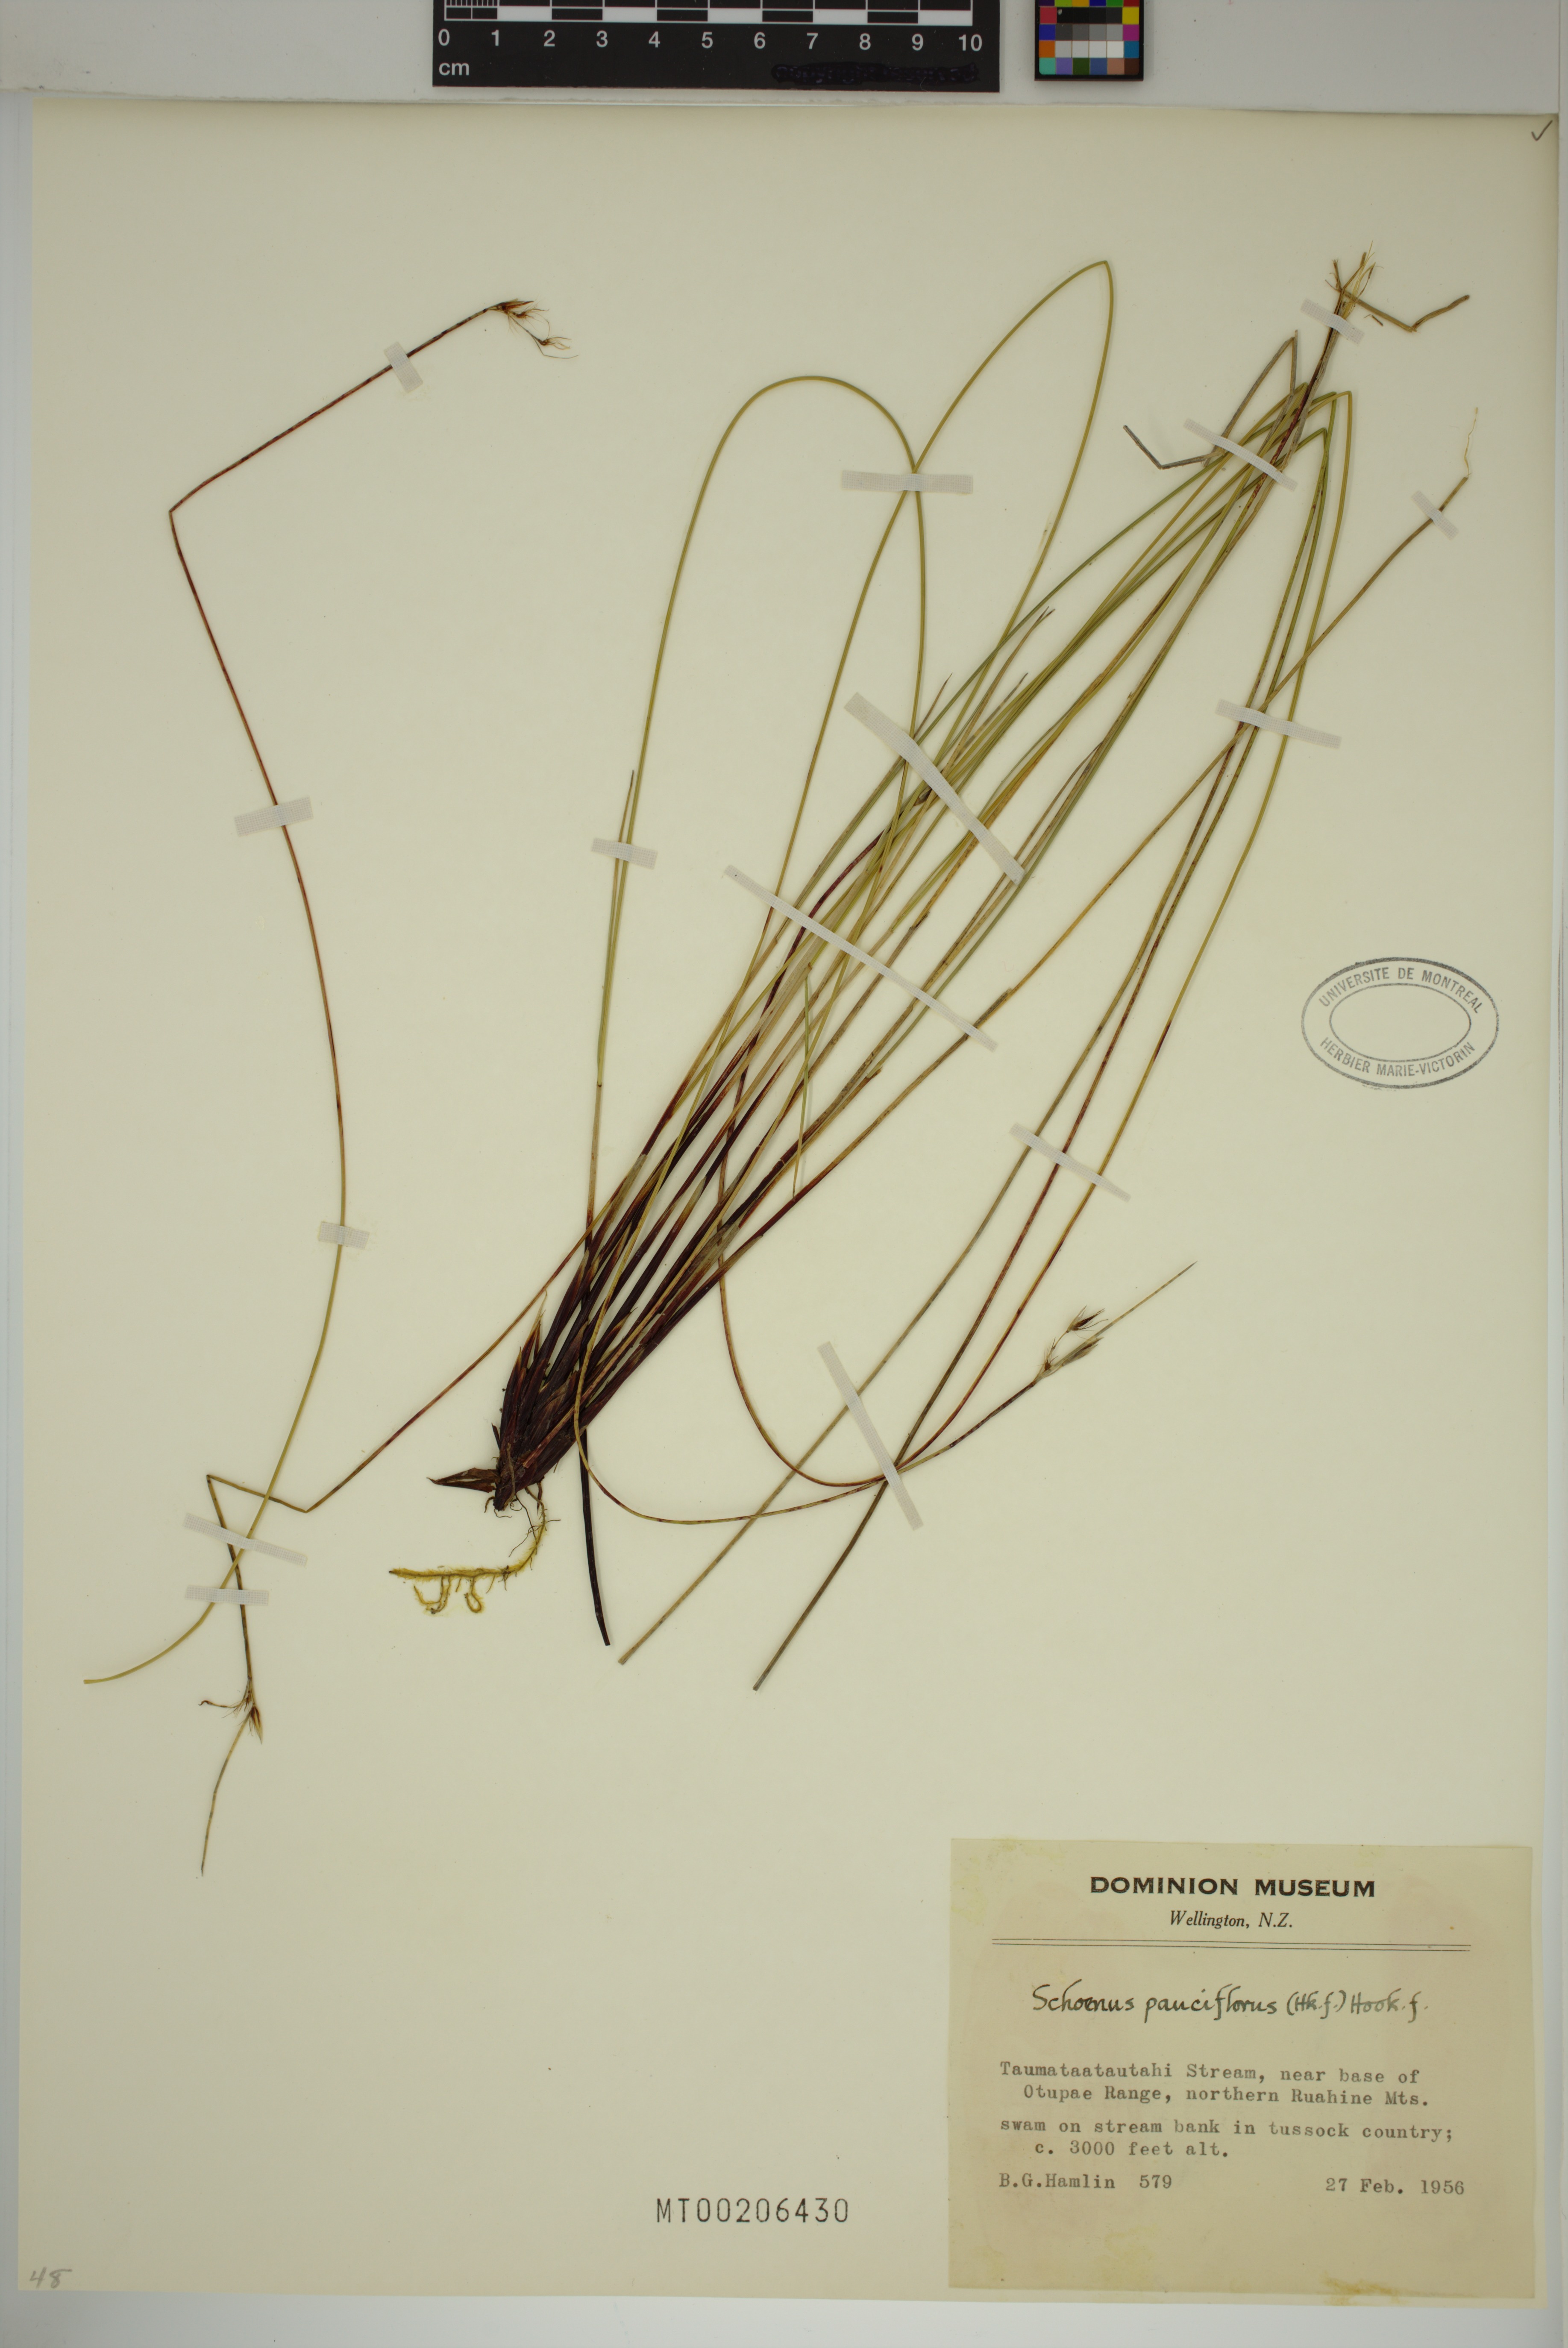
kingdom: Plantae
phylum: Tracheophyta
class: Liliopsida
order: Poales
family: Cyperaceae
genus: Schoenus
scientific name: Schoenus pauciflorus
